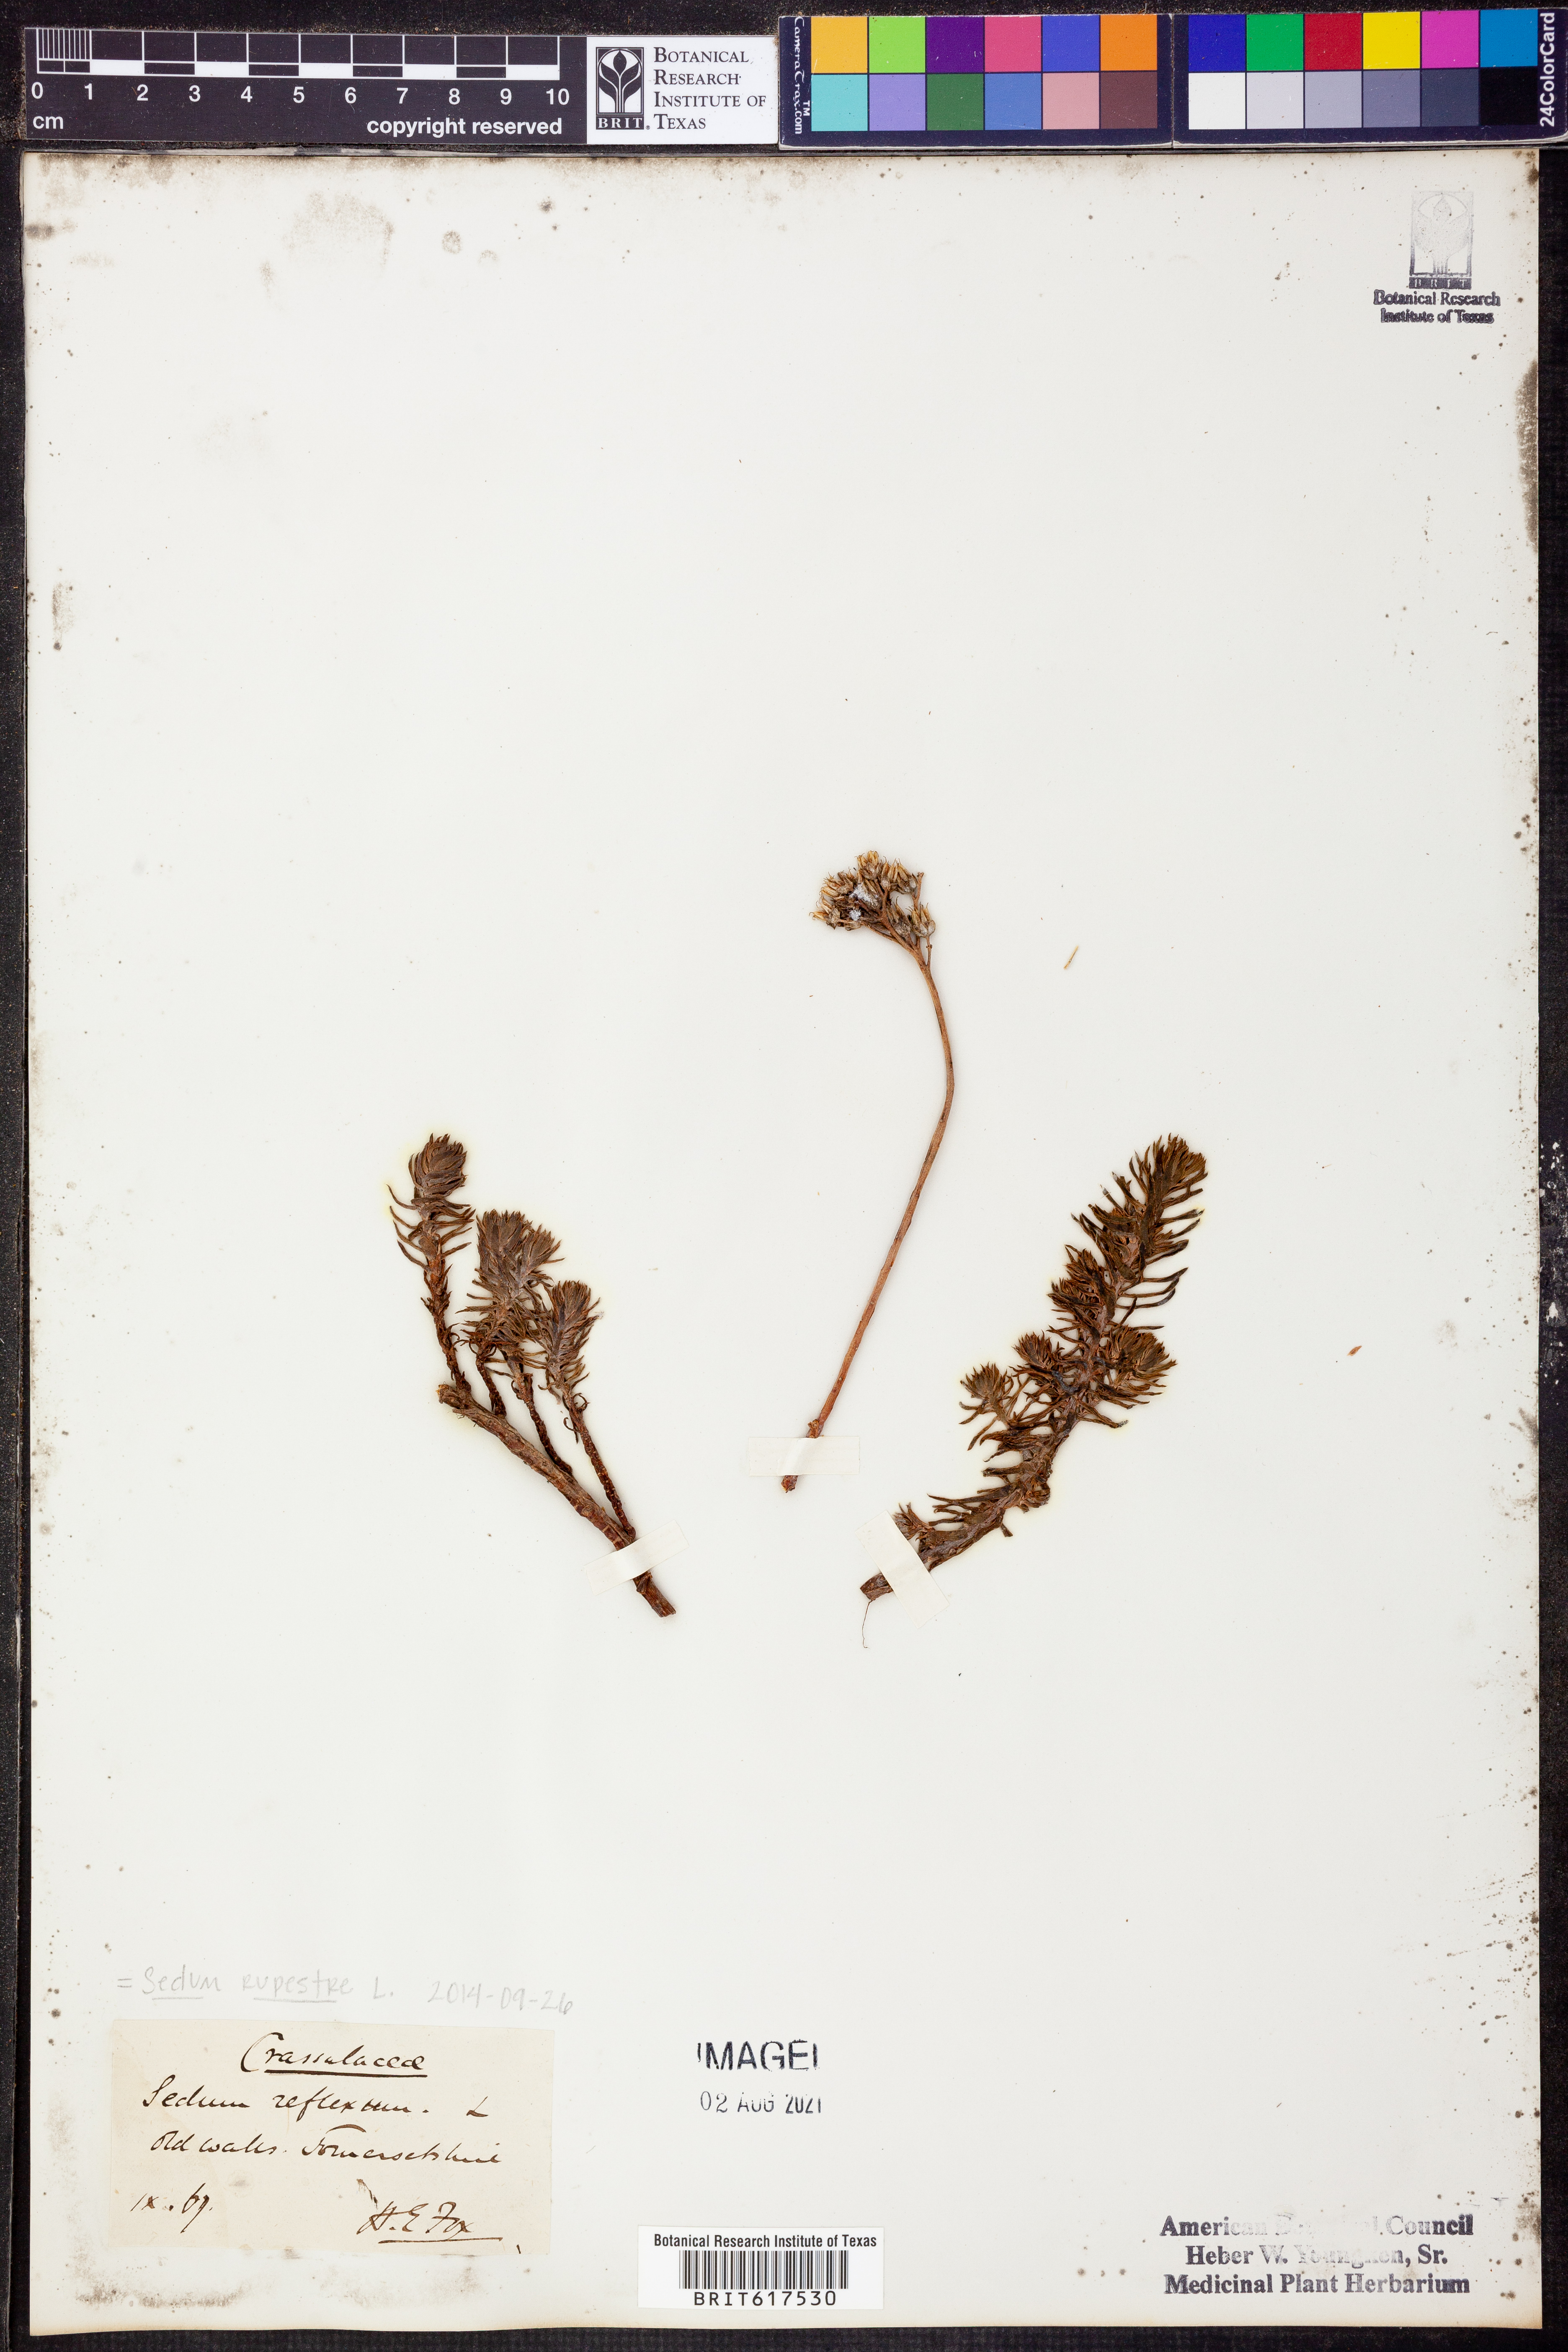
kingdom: Plantae
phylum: Tracheophyta
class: Magnoliopsida
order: Saxifragales
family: Crassulaceae
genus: Petrosedum
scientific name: Petrosedum rupestre
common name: Jenny's stonecrop
